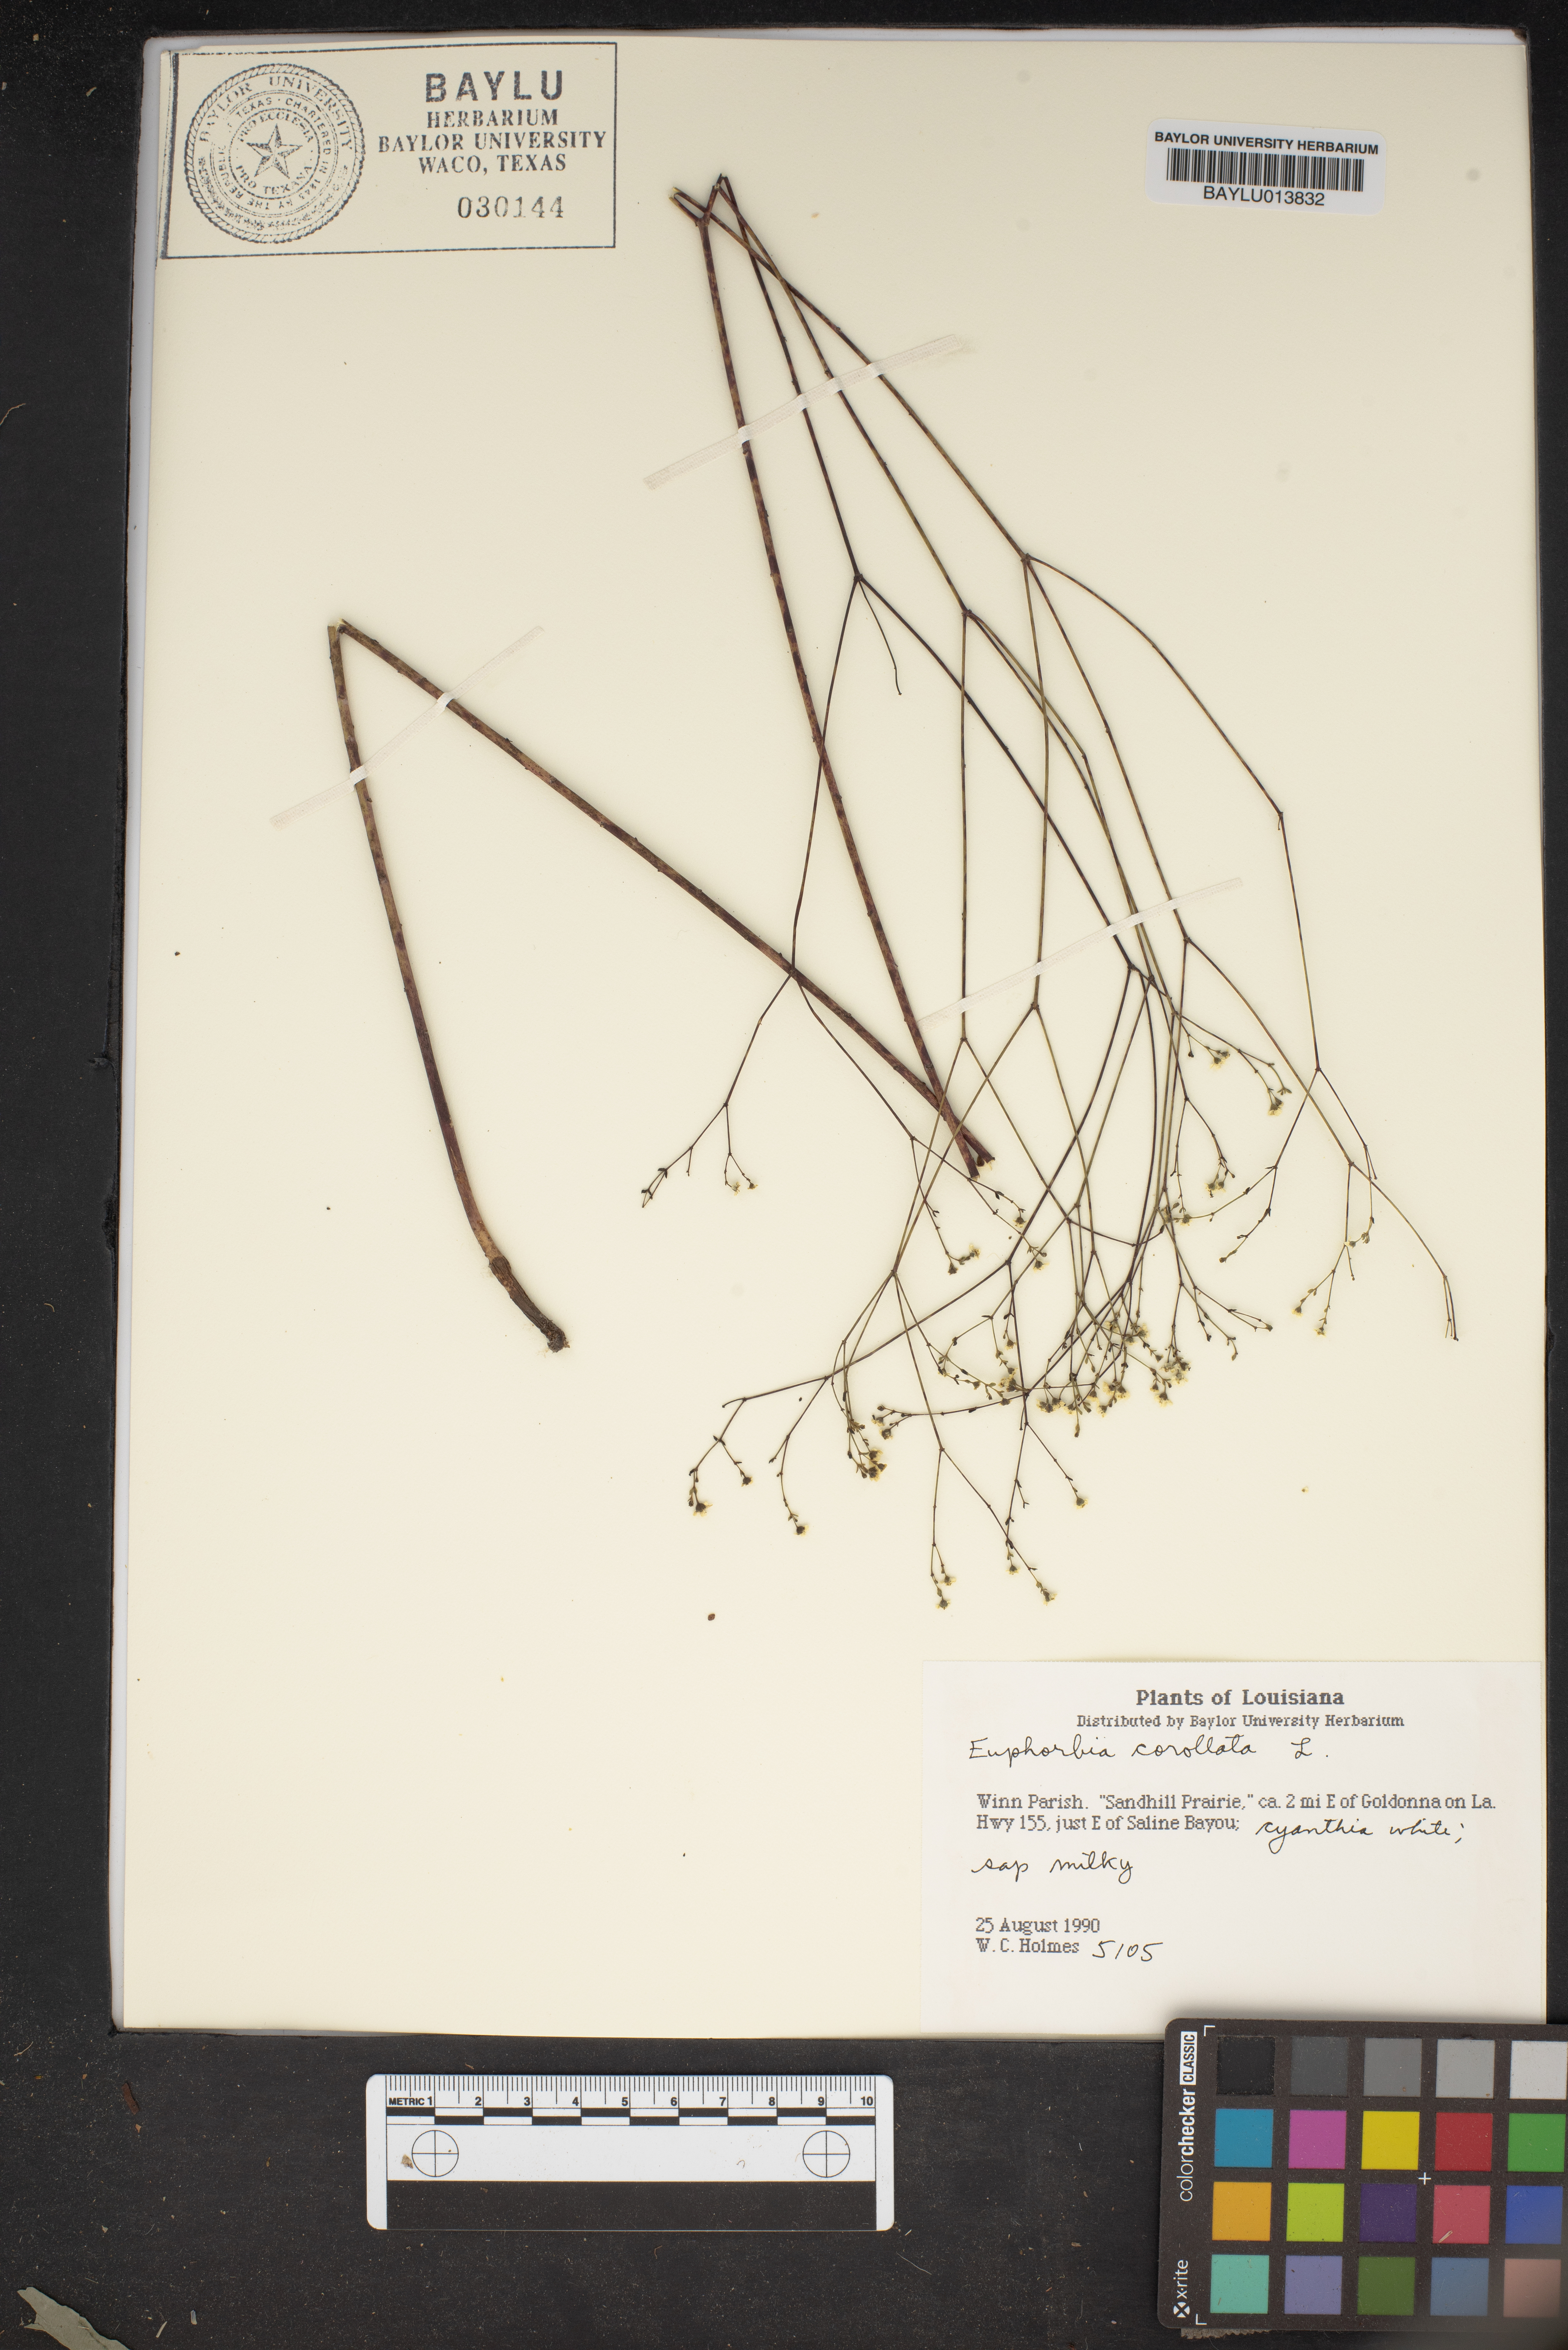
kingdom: Plantae
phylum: Tracheophyta
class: Magnoliopsida
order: Malpighiales
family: Euphorbiaceae
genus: Euphorbia
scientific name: Euphorbia corollata
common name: Flowering spurge
